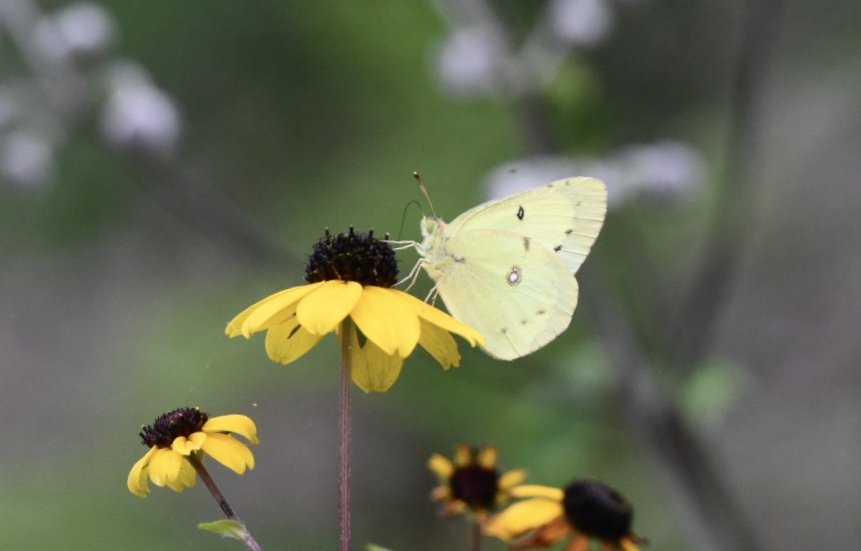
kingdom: Animalia
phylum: Arthropoda
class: Insecta
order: Lepidoptera
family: Pieridae
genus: Colias
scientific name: Colias philodice
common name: Clouded Sulphur
